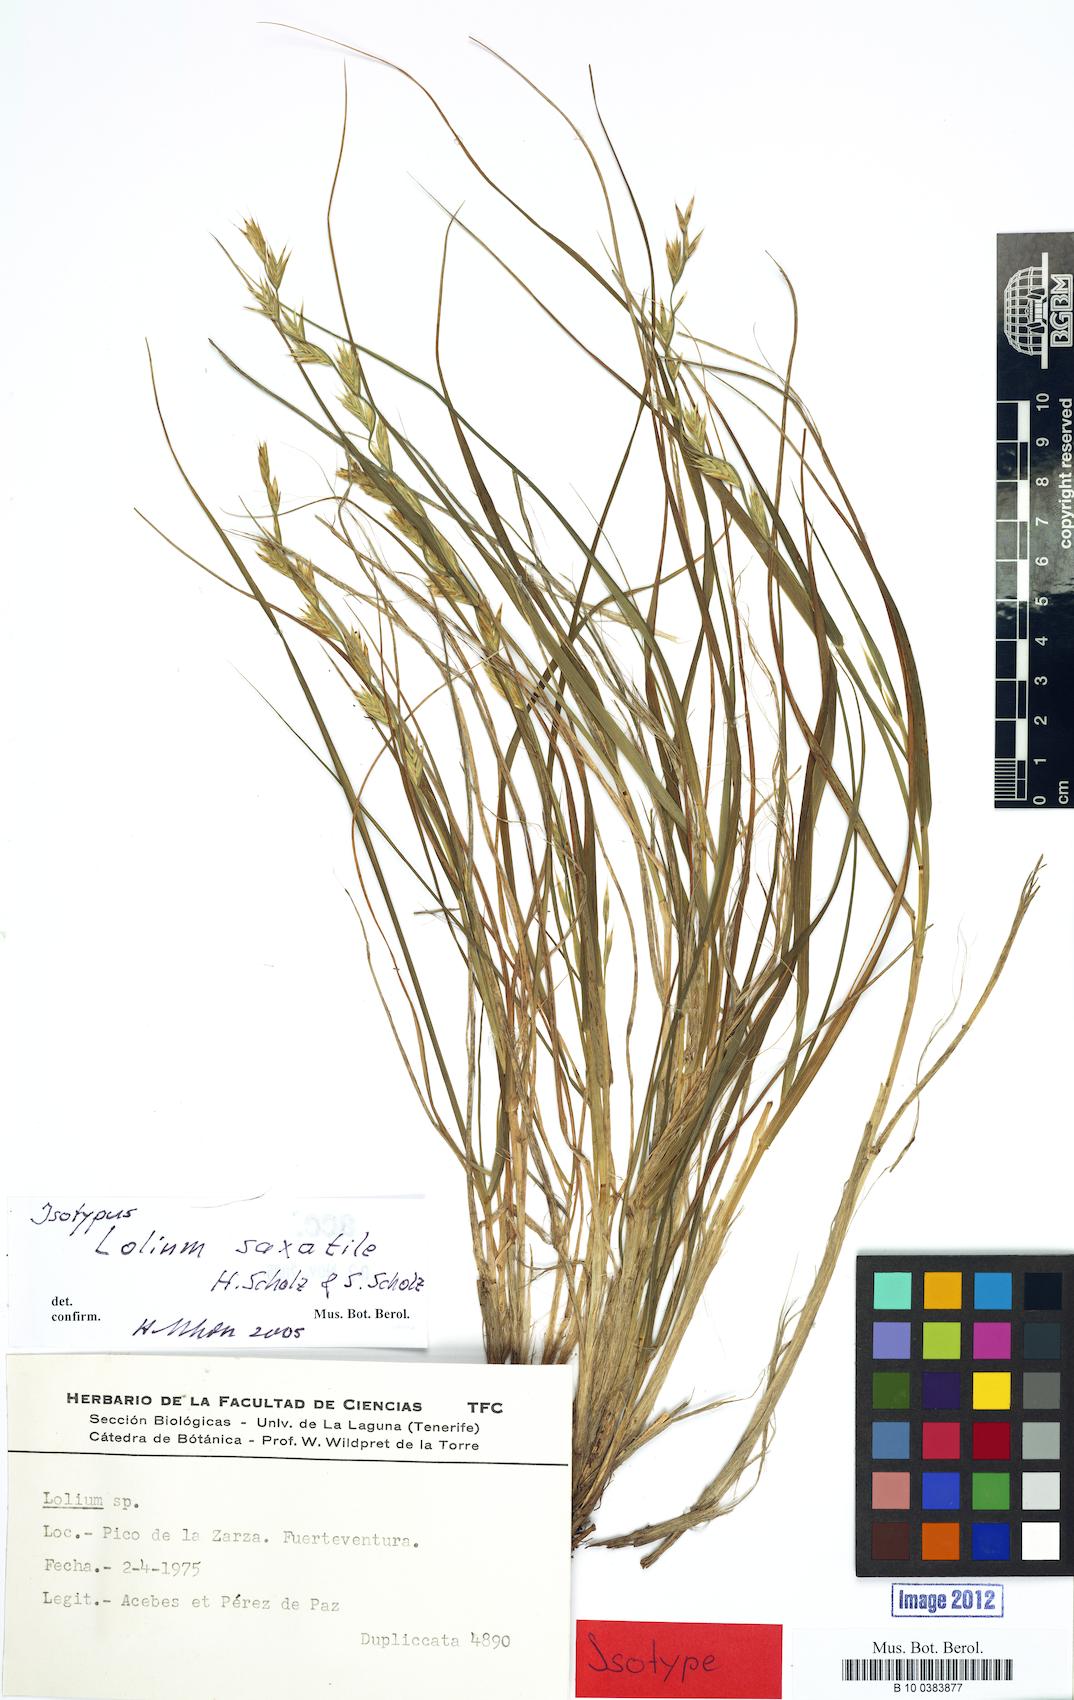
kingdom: Plantae
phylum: Tracheophyta
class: Liliopsida
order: Poales
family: Poaceae
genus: Lolium
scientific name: Lolium saxatile
